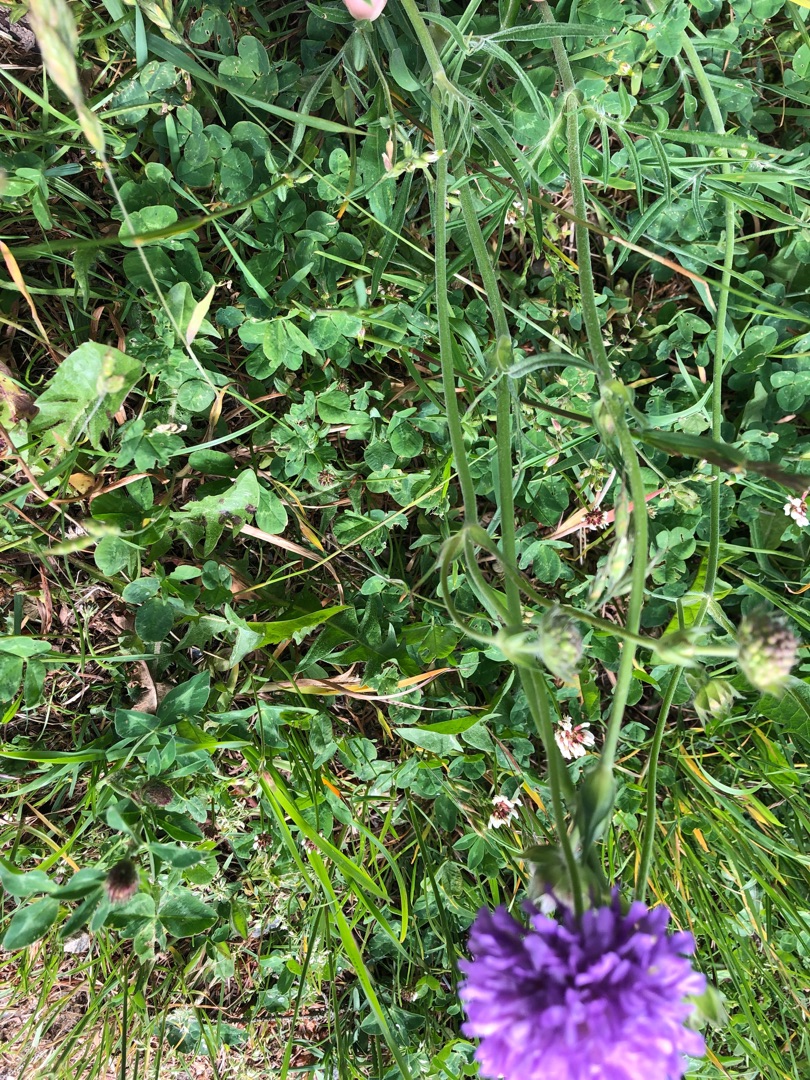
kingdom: Plantae
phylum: Tracheophyta
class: Magnoliopsida
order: Dipsacales
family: Caprifoliaceae
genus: Knautia
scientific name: Knautia arvensis
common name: Blåhat
